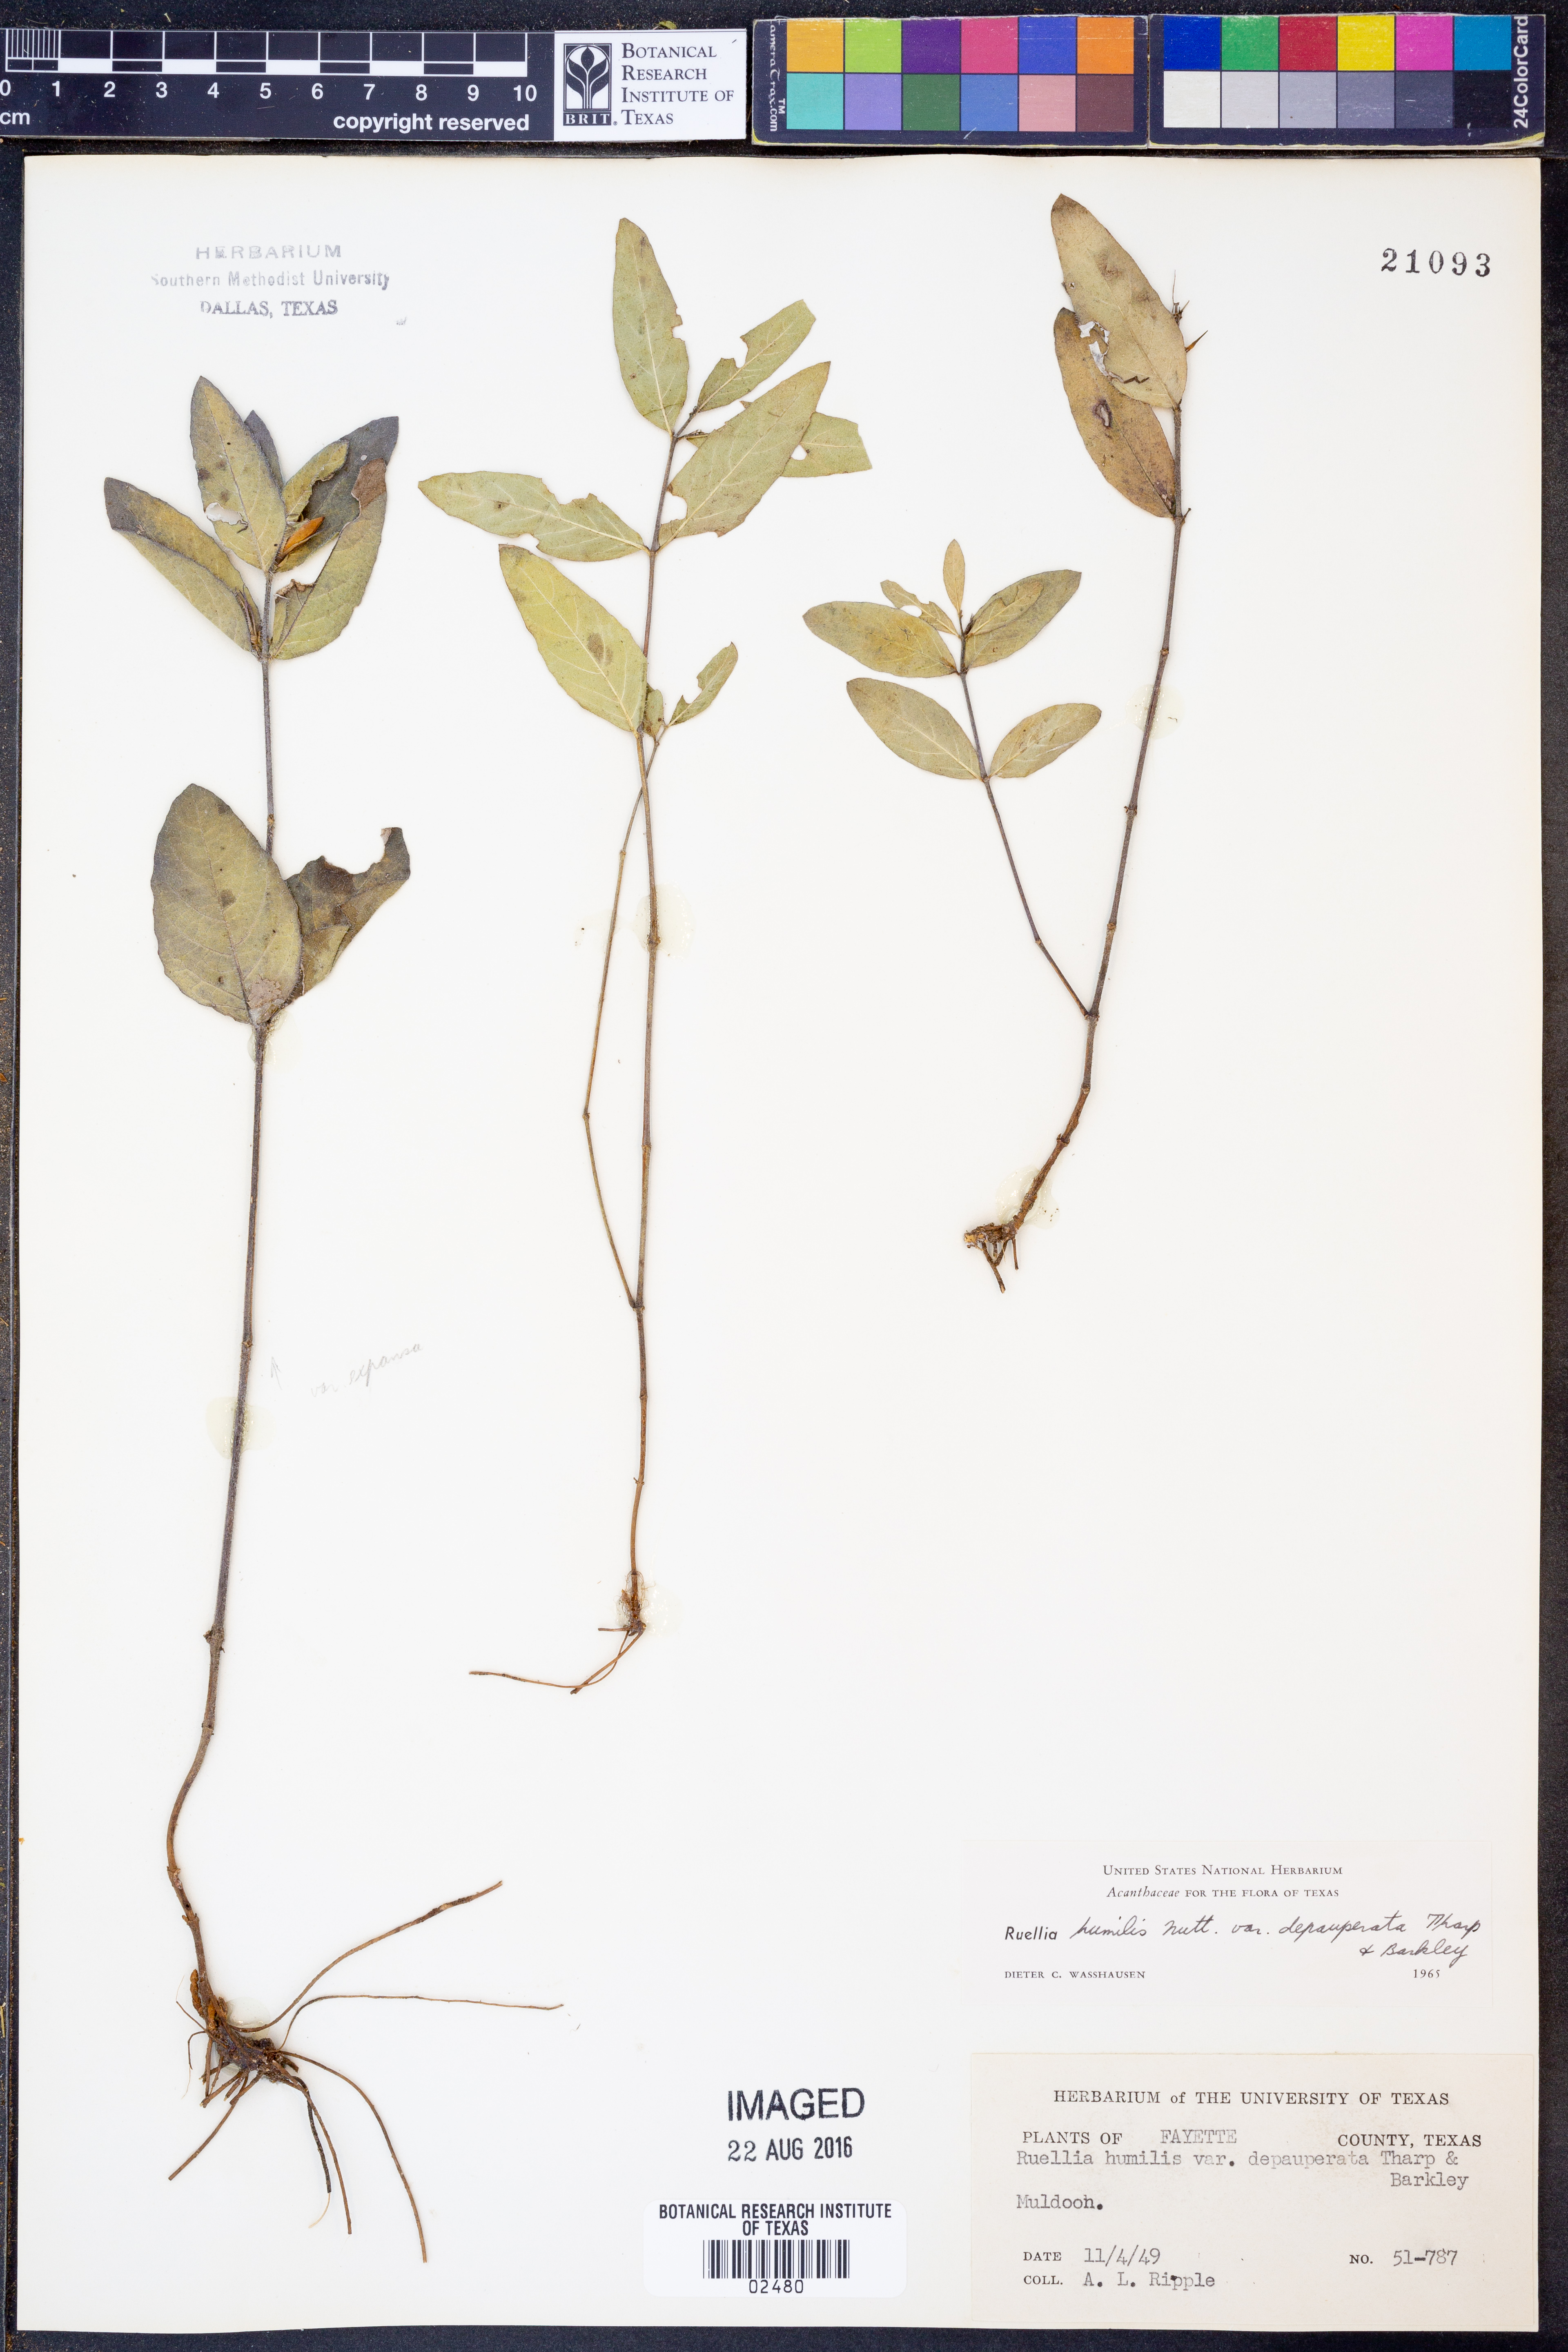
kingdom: Plantae
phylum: Tracheophyta
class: Magnoliopsida
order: Lamiales
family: Acanthaceae
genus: Ruellia
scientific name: Ruellia humilis
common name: Fringe-leaf ruellia
